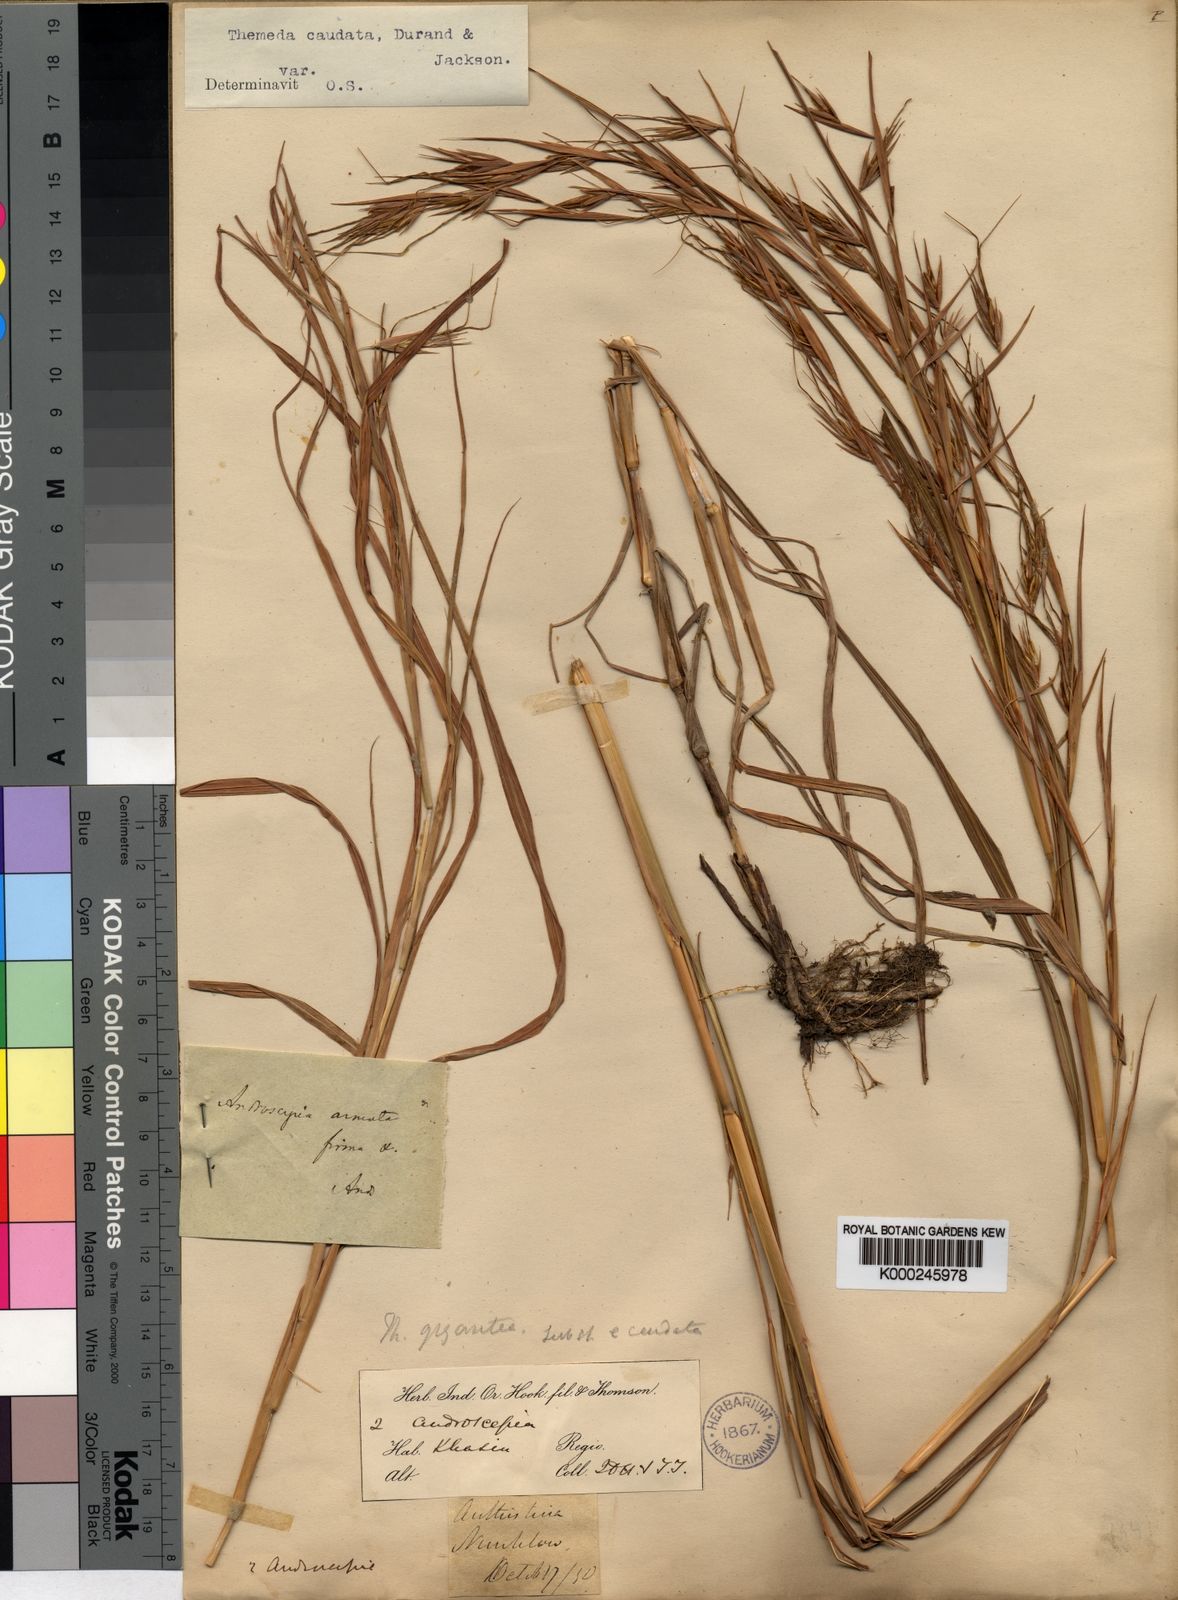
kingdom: Plantae
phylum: Tracheophyta
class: Liliopsida
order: Poales
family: Poaceae
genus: Themeda
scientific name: Themeda
